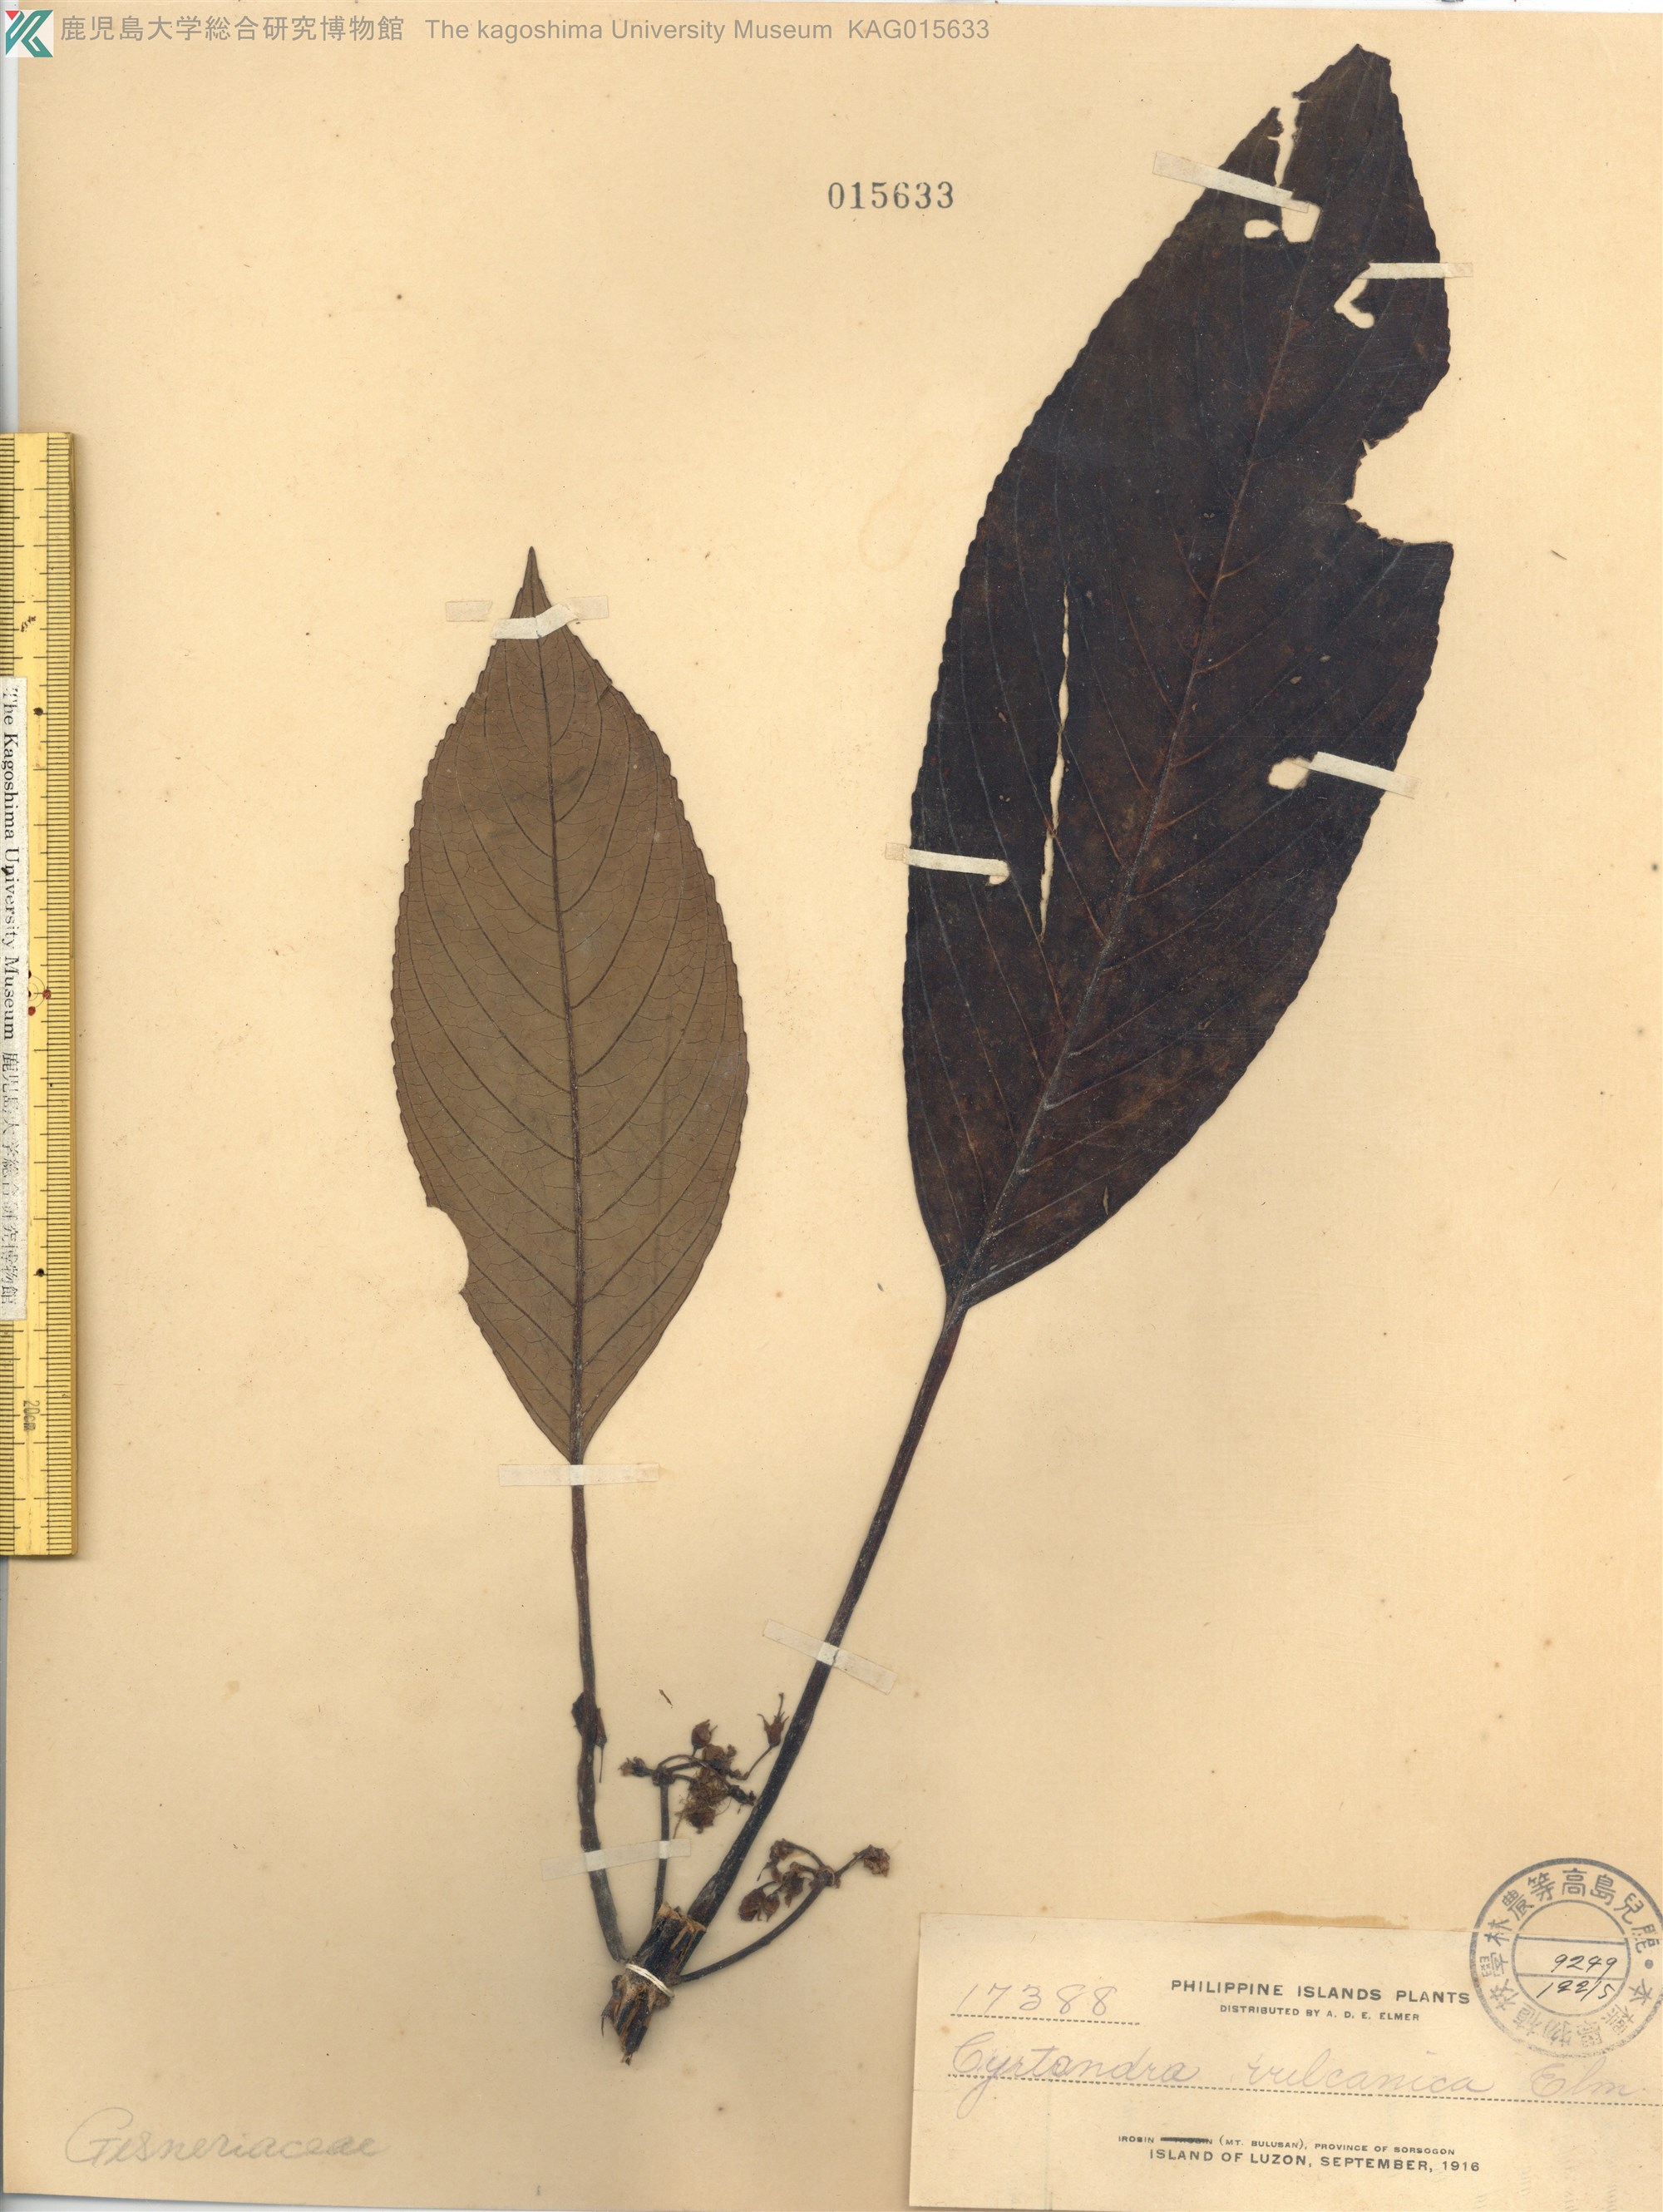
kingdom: Plantae
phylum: Tracheophyta
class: Magnoliopsida
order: Lamiales
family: Gesneriaceae
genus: Cyrtandra
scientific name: Cyrtandra pachyphylla
